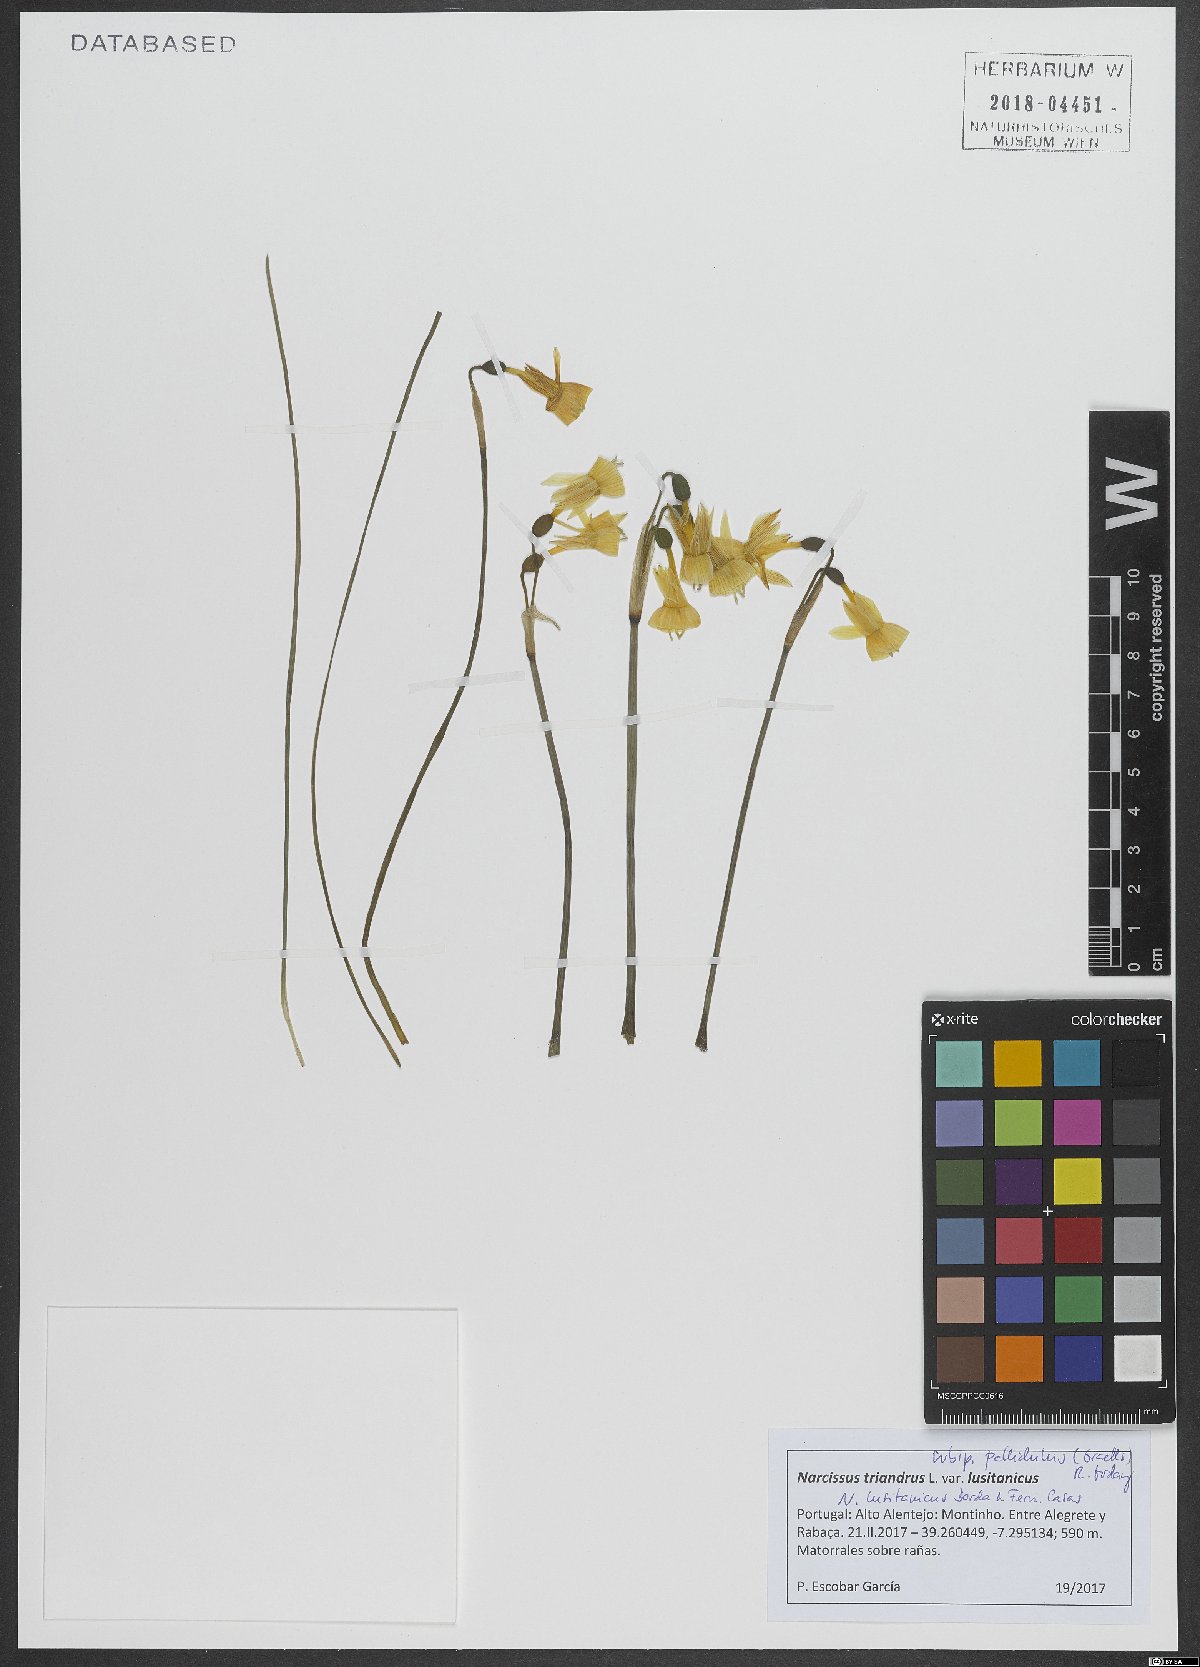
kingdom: Plantae
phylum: Tracheophyta
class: Liliopsida
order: Asparagales
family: Amaryllidaceae
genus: Narcissus
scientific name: Narcissus triandrus
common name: Angel's-tears
